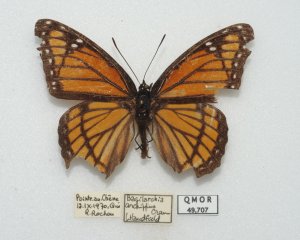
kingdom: Animalia
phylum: Arthropoda
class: Insecta
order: Lepidoptera
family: Nymphalidae
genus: Limenitis
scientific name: Limenitis archippus
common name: Viceroy
